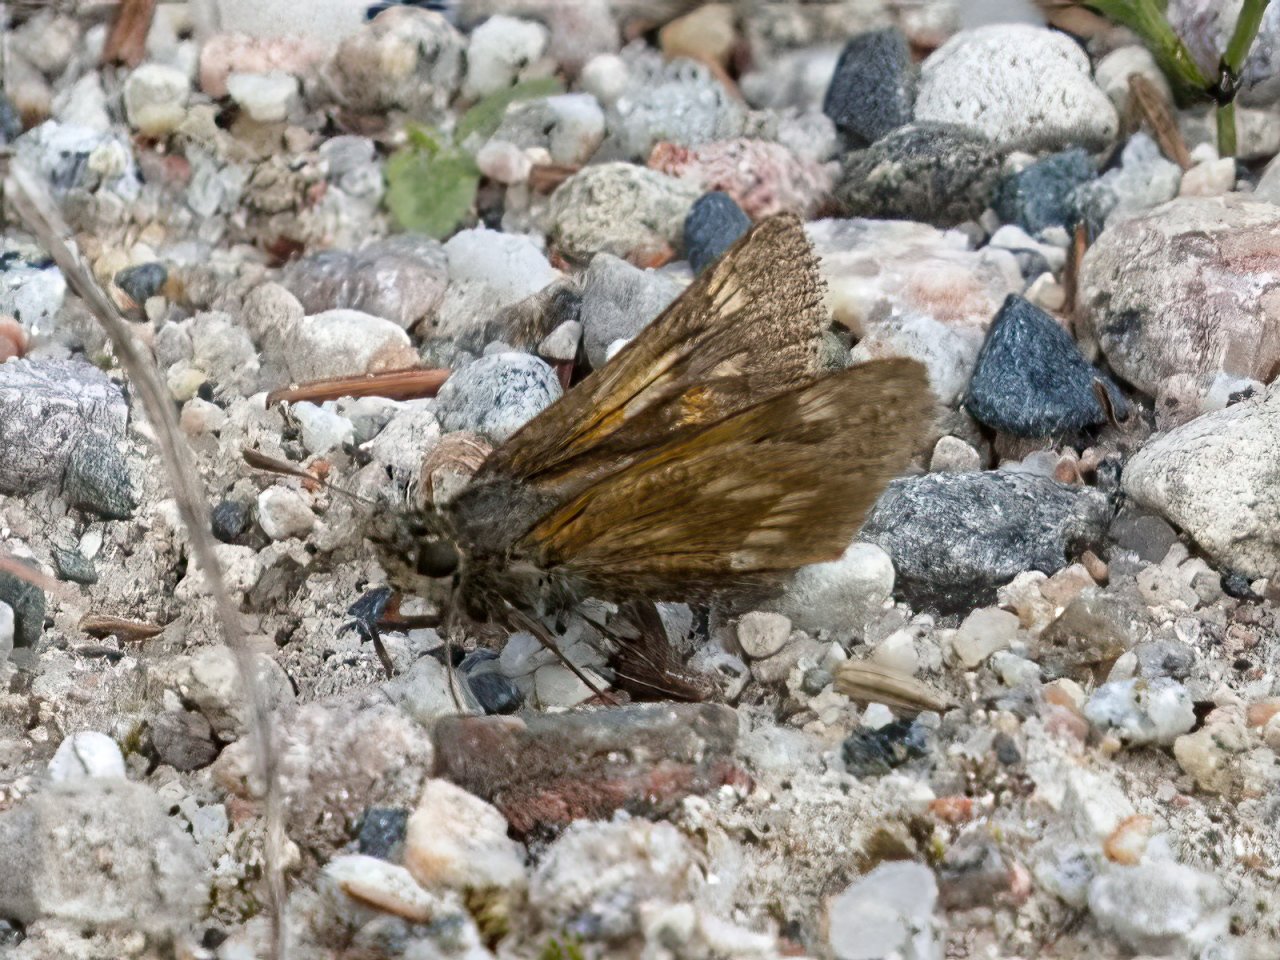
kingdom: Animalia
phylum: Arthropoda
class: Insecta
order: Lepidoptera
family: Hesperiidae
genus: Polites
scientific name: Polites
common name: Long Dash Skipper
